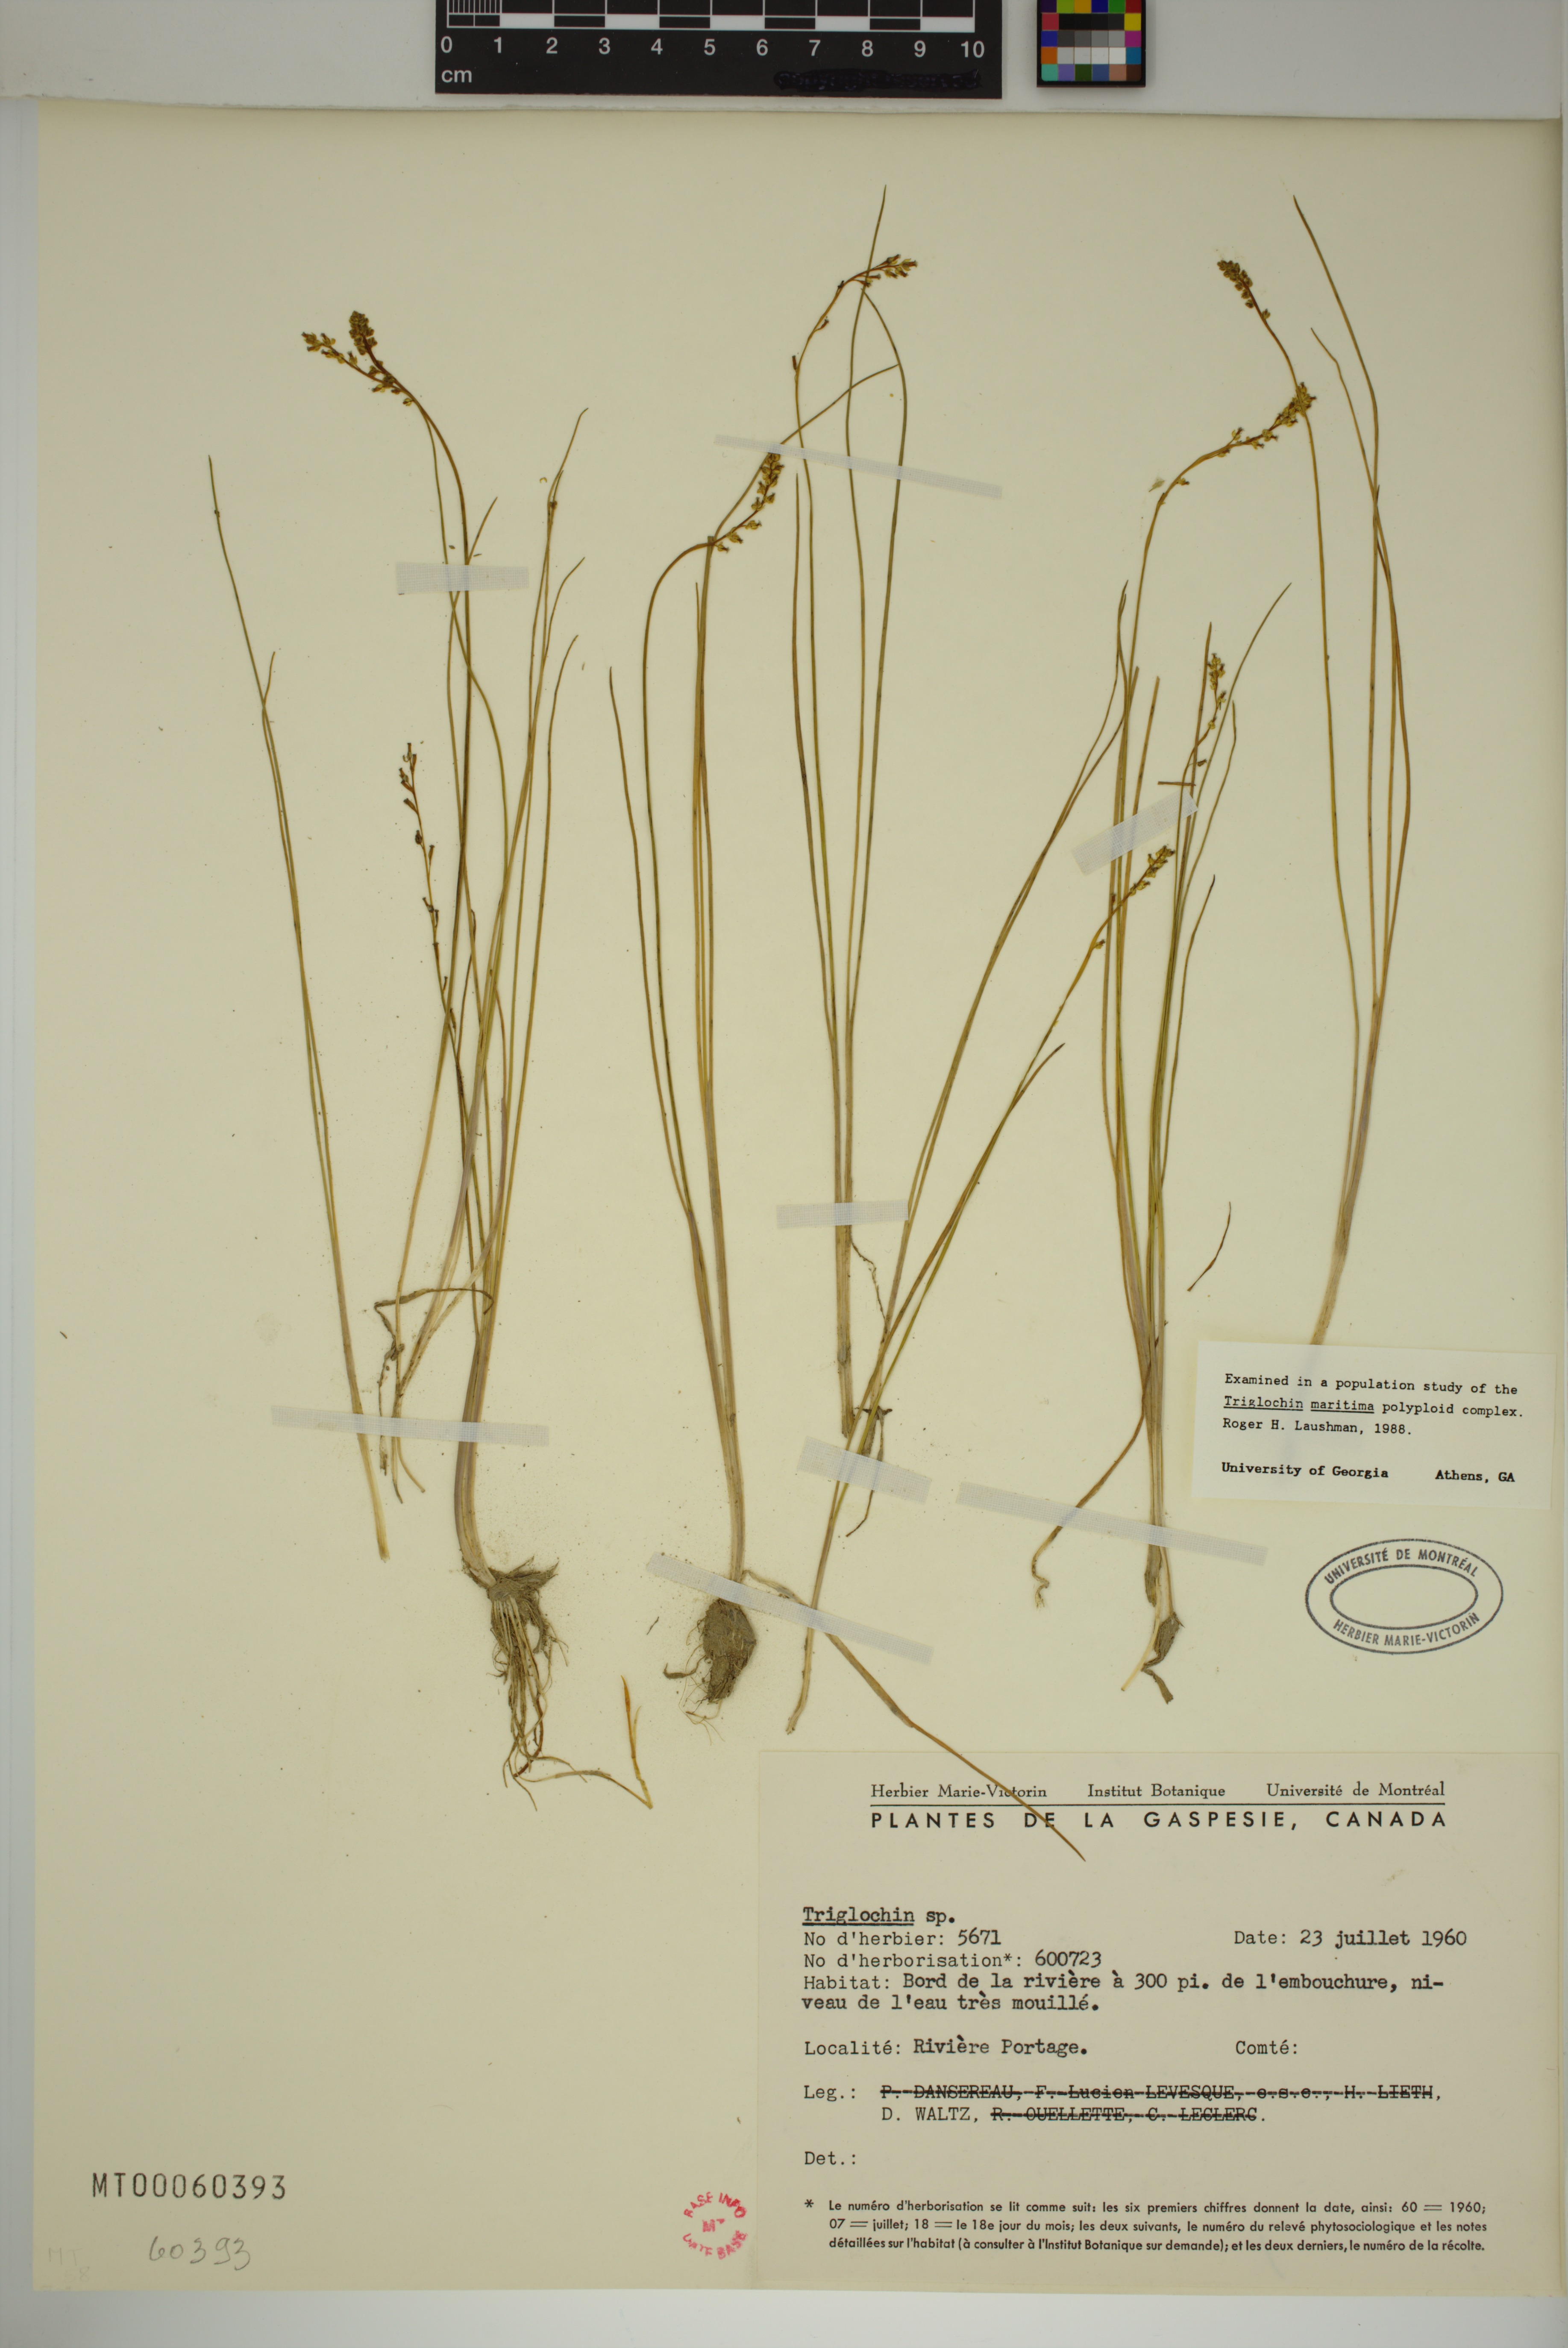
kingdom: Plantae
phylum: Tracheophyta
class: Liliopsida
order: Alismatales
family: Juncaginaceae
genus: Triglochin
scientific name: Triglochin
